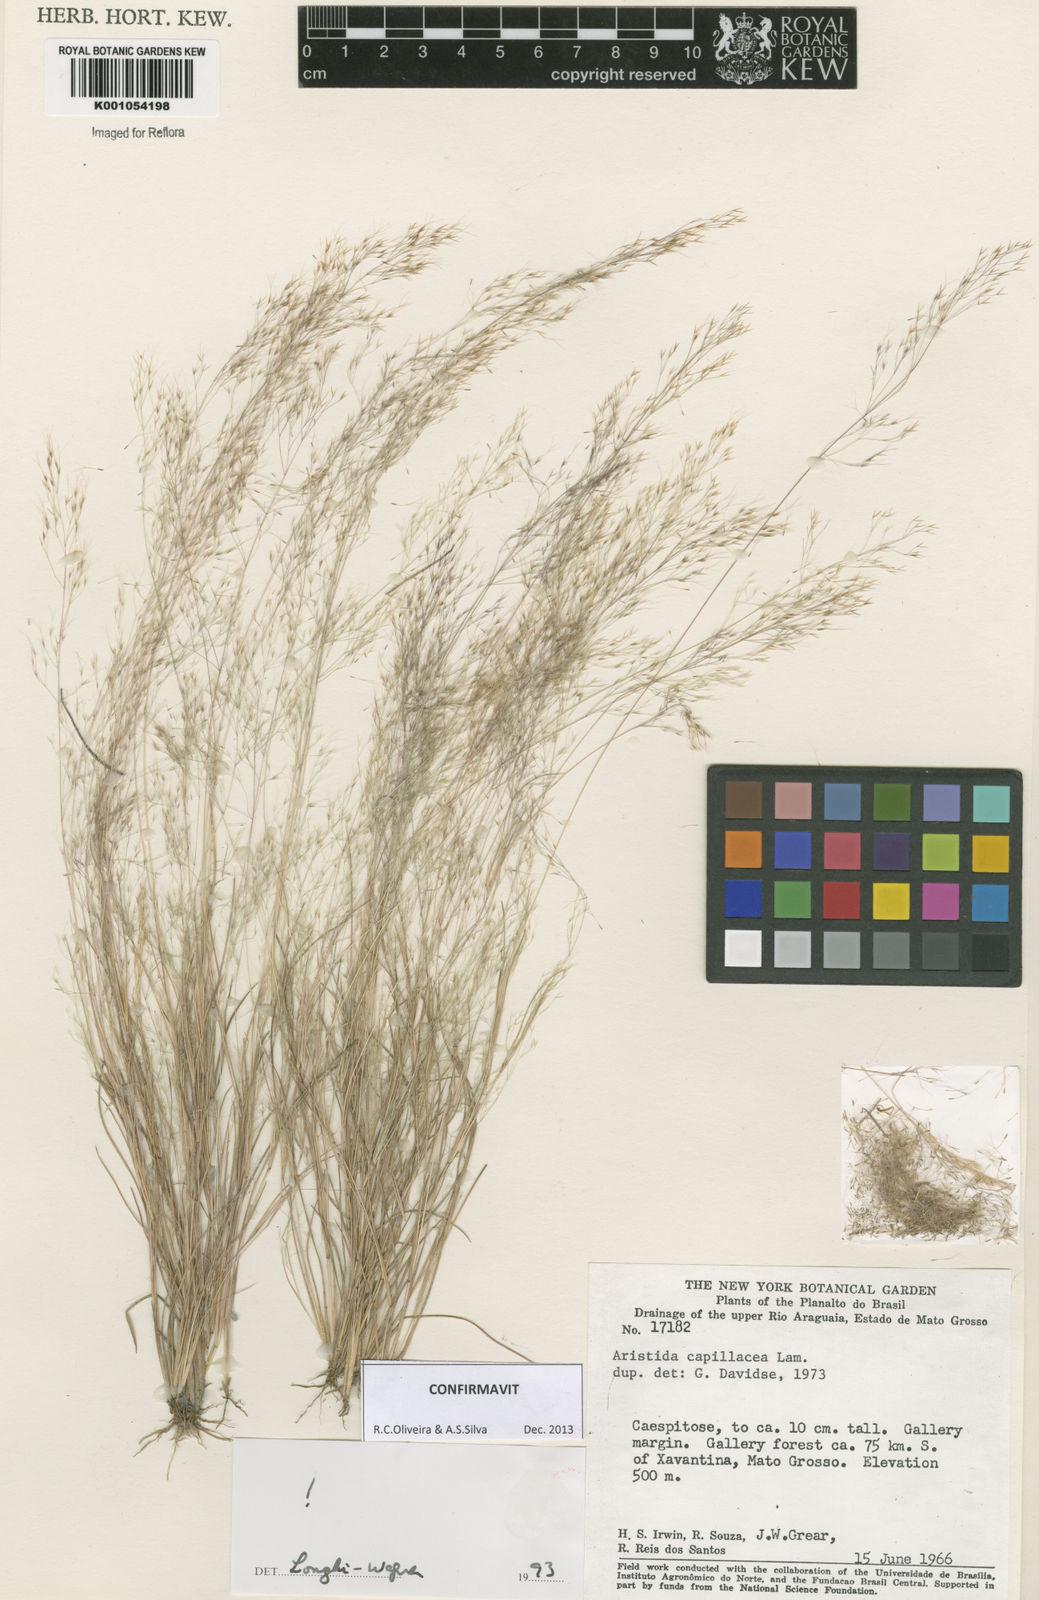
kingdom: Plantae
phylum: Tracheophyta
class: Liliopsida
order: Poales
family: Poaceae
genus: Aristida
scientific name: Aristida capillacea
